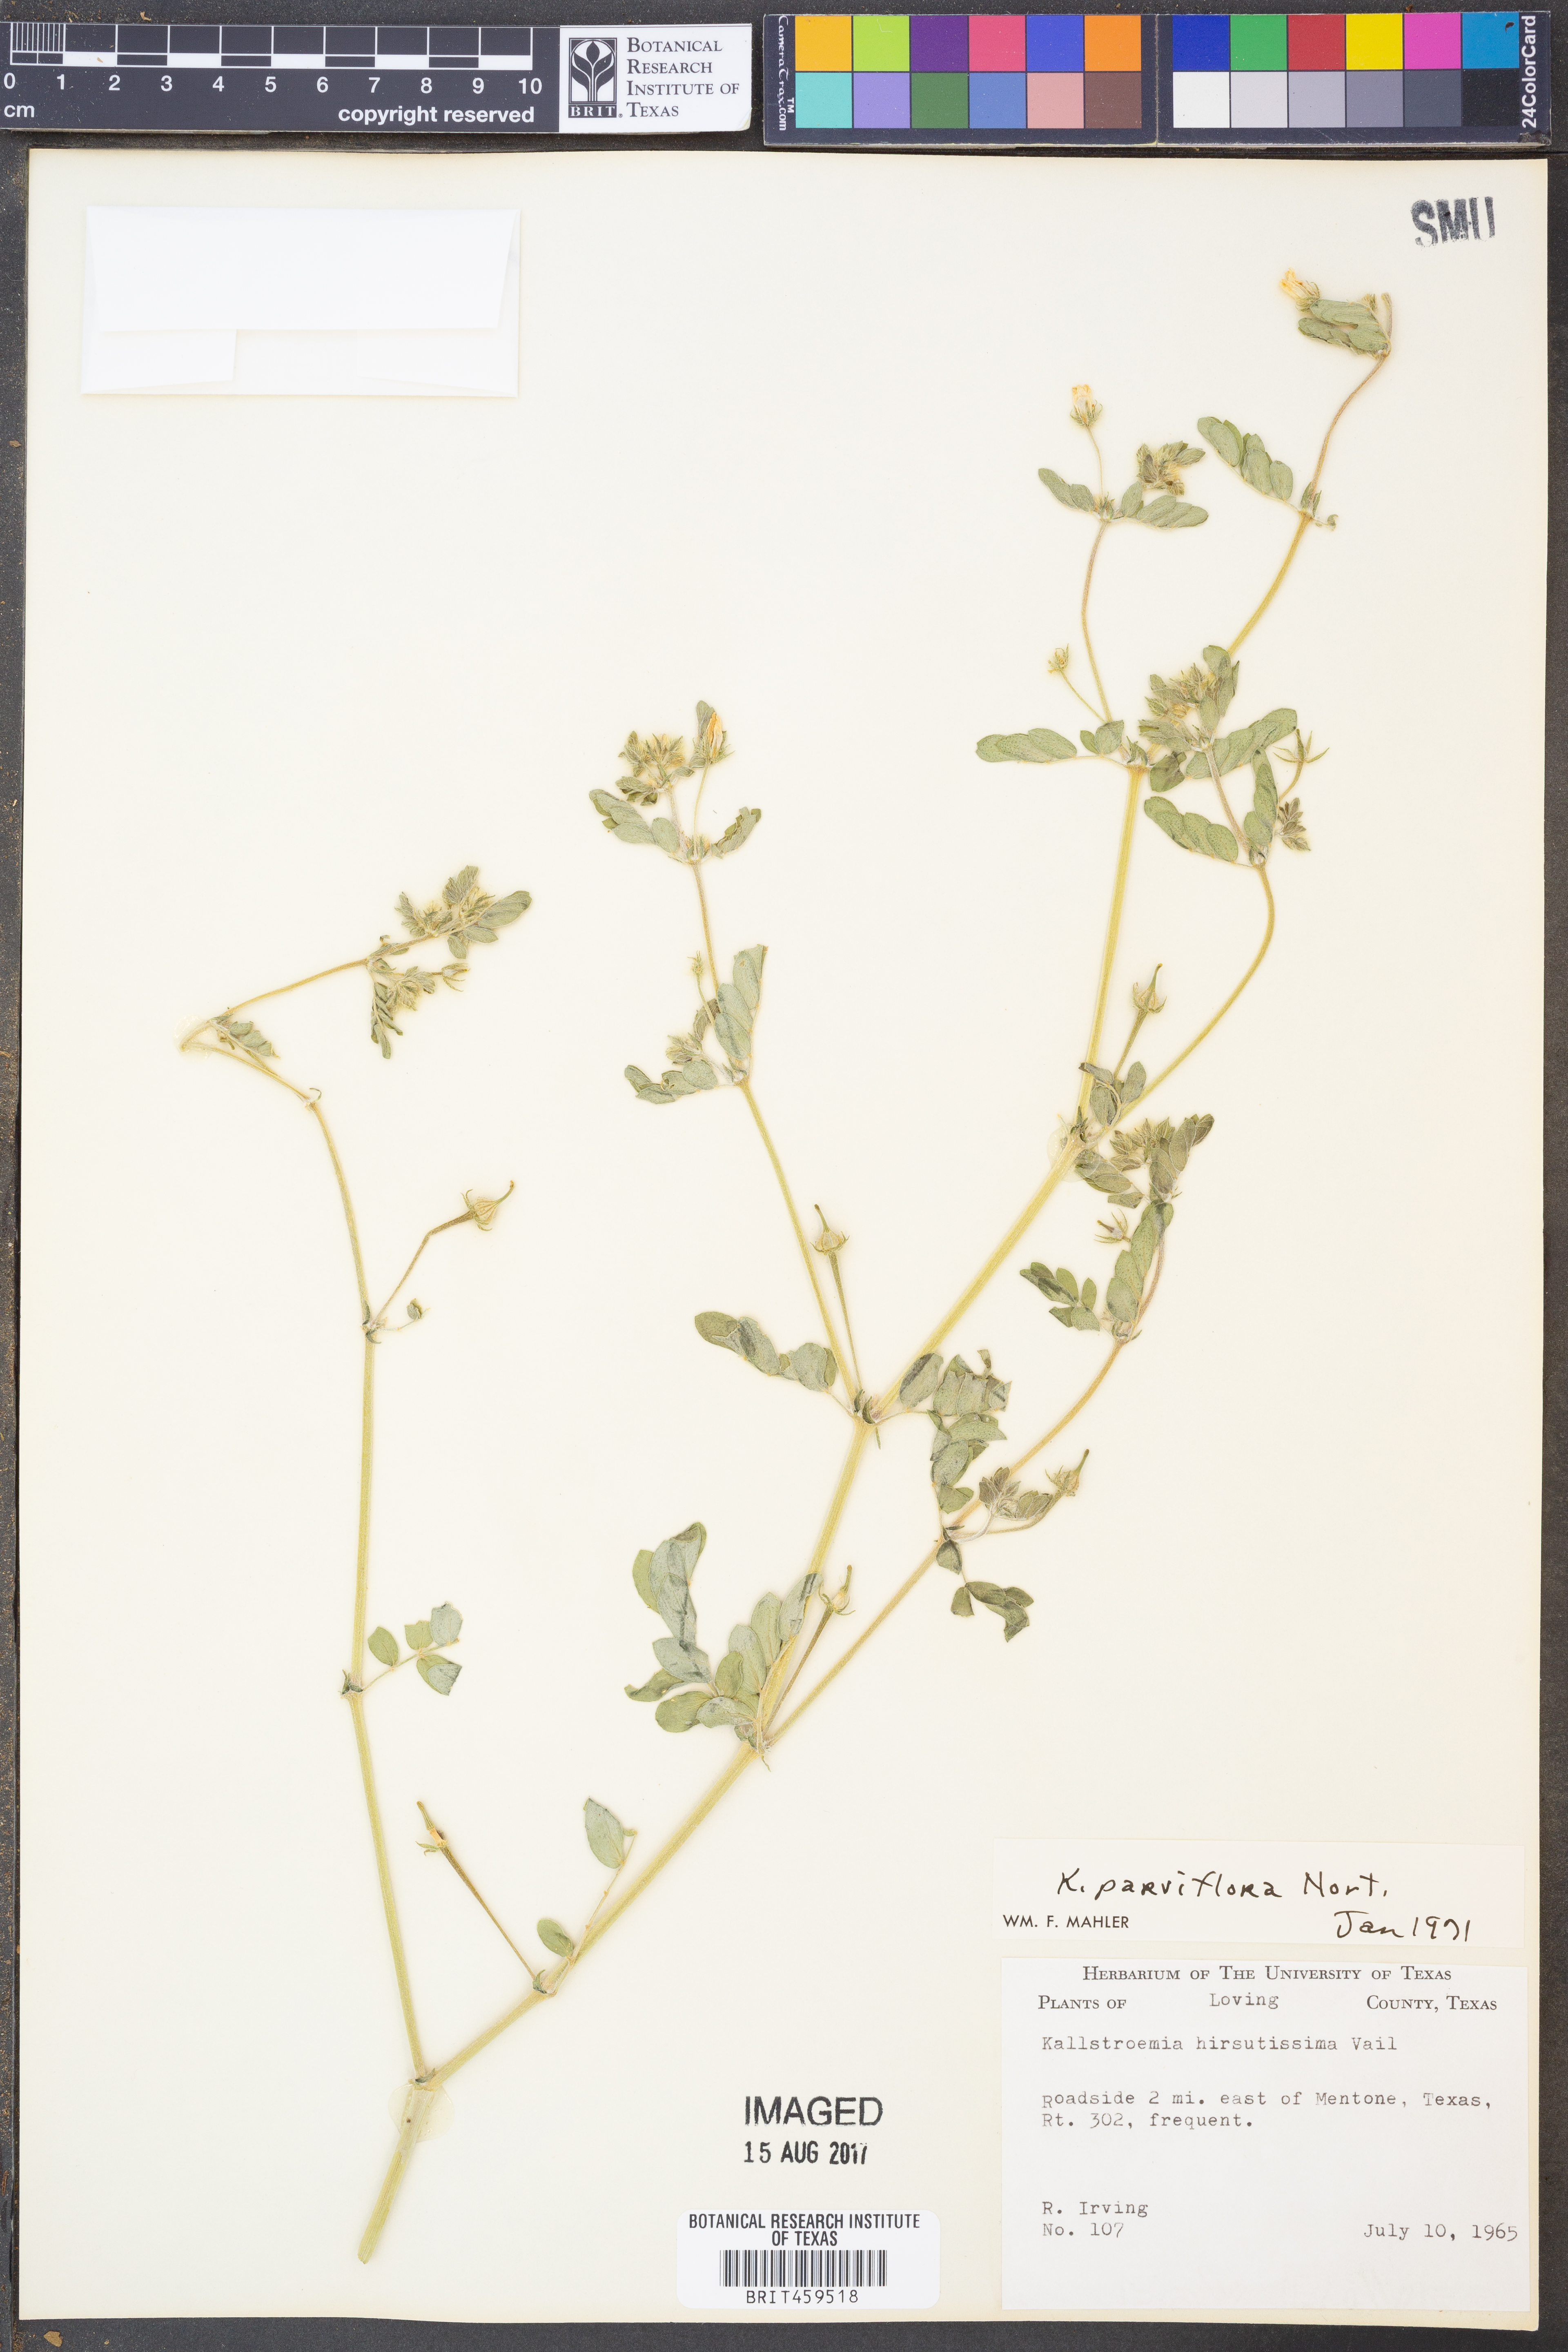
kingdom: Plantae
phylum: Tracheophyta
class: Magnoliopsida
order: Zygophyllales
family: Zygophyllaceae
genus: Kallstroemia
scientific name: Kallstroemia parviflora
